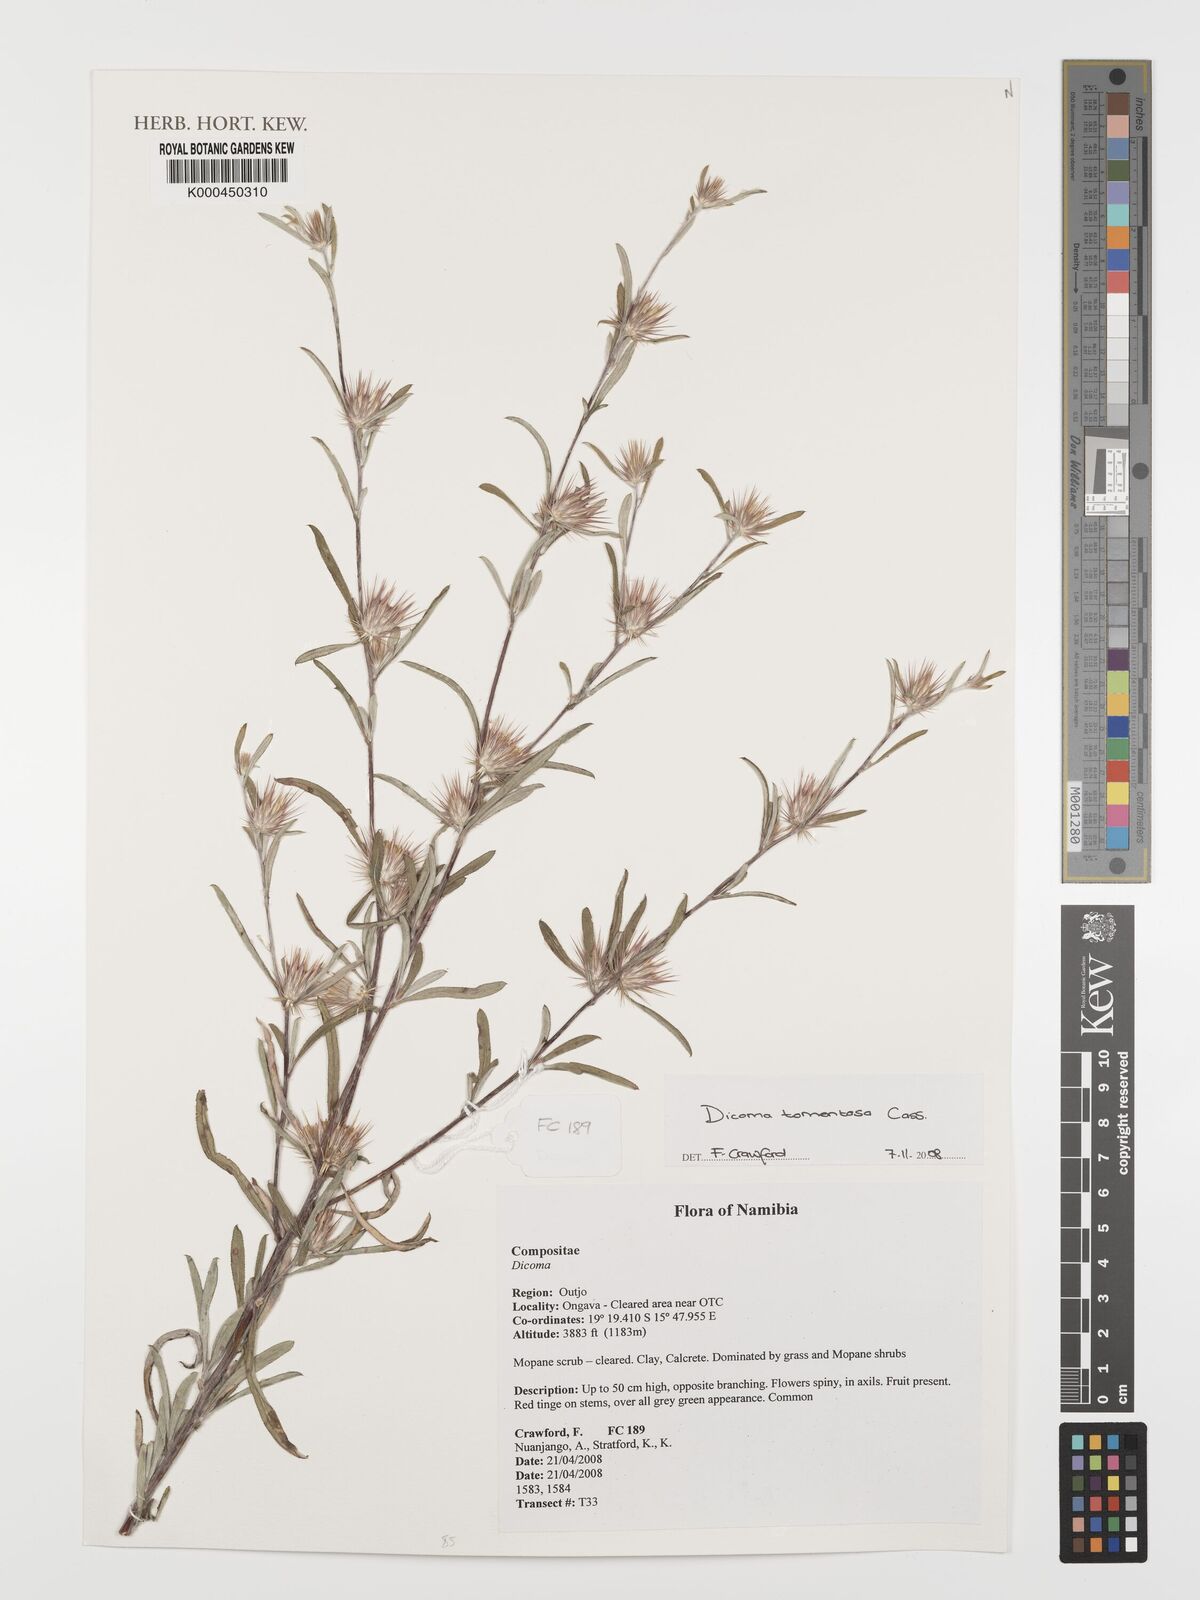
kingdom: Plantae
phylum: Tracheophyta
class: Magnoliopsida
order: Asterales
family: Asteraceae
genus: Dicoma
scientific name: Dicoma tomentosa
